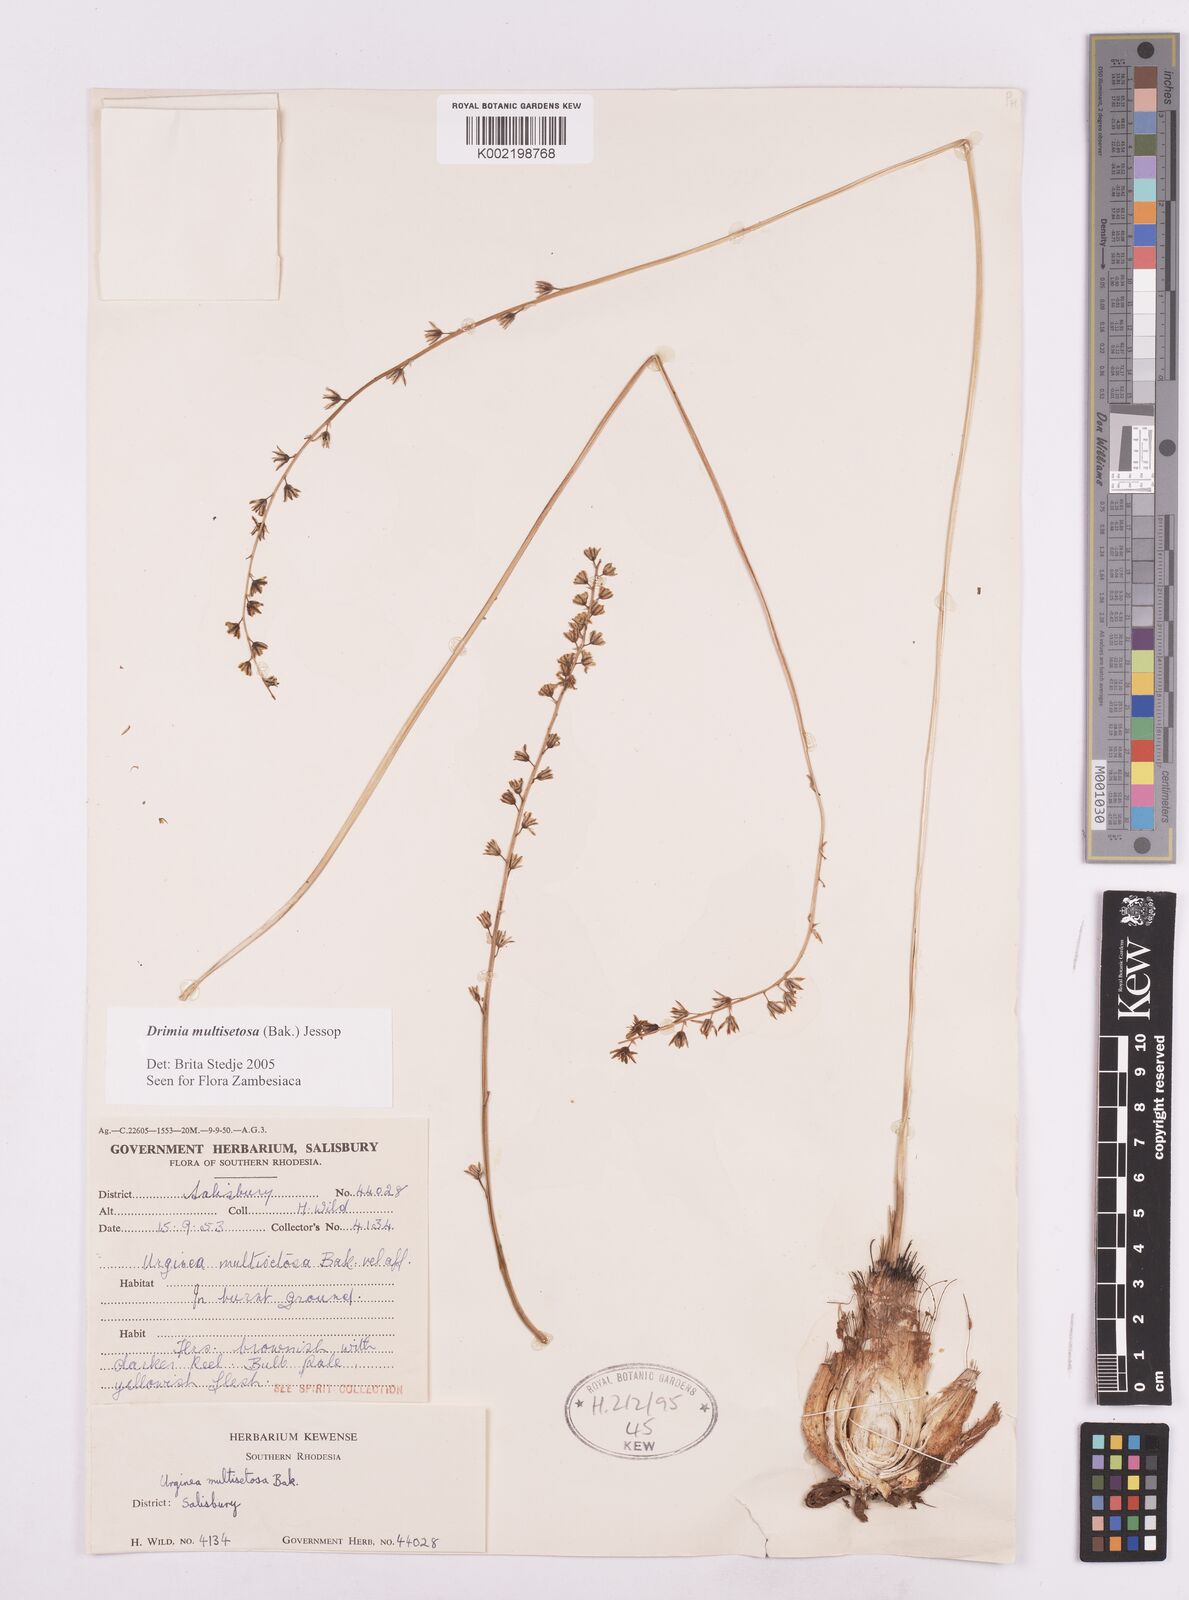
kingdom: Plantae
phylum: Tracheophyta
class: Liliopsida
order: Asparagales
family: Asparagaceae
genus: Drimia
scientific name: Drimia multisetosa
